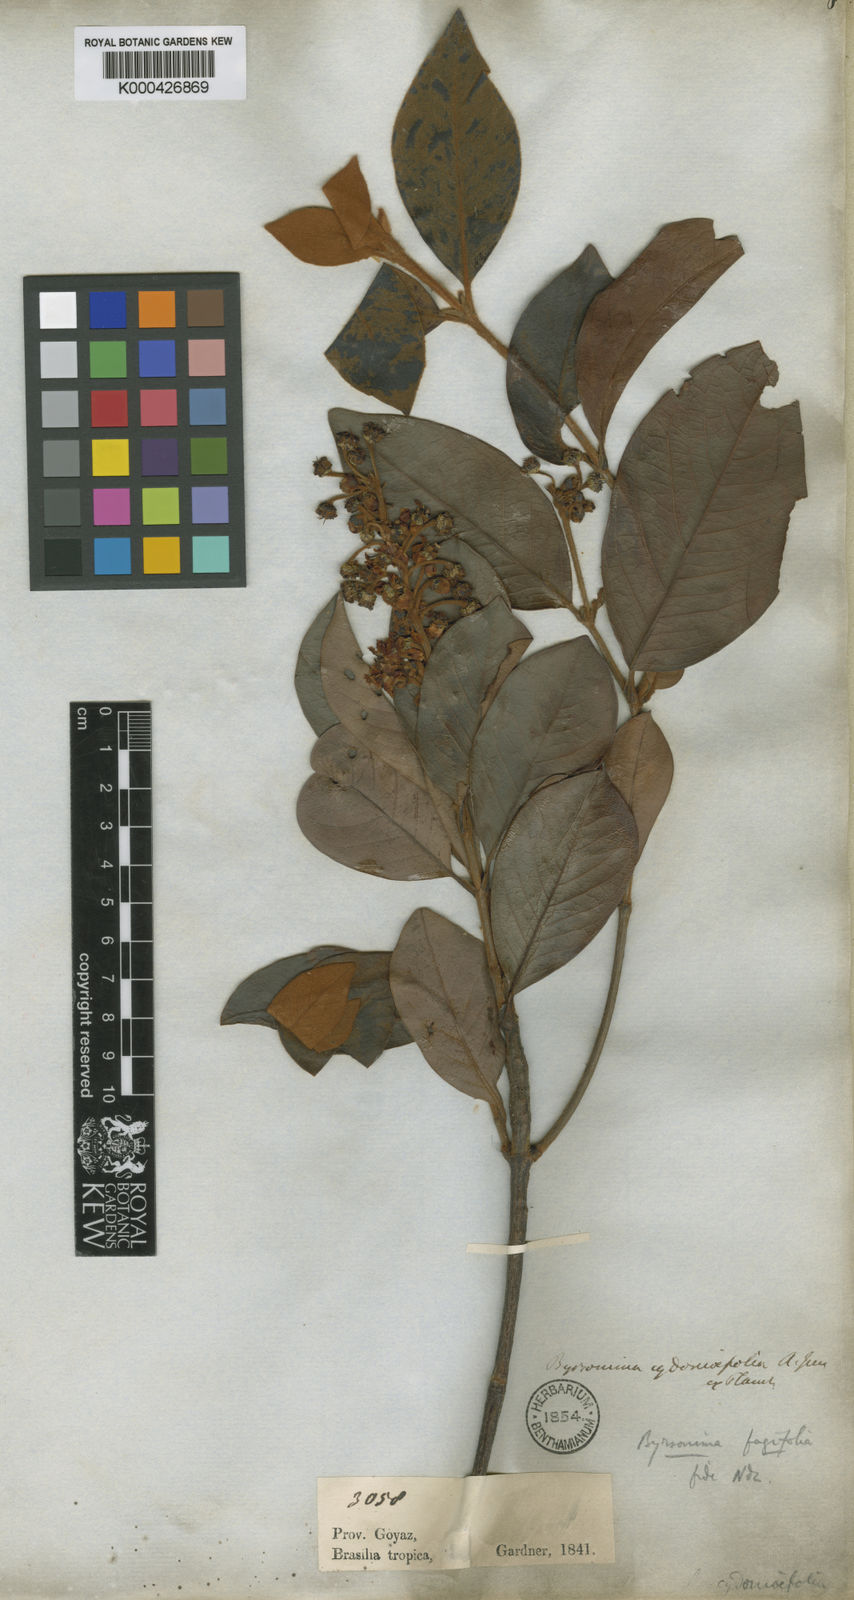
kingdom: Plantae
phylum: Tracheophyta
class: Magnoliopsida
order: Malpighiales
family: Malpighiaceae
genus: Byrsonima
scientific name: Byrsonima crassifolia
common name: Golden spoon
